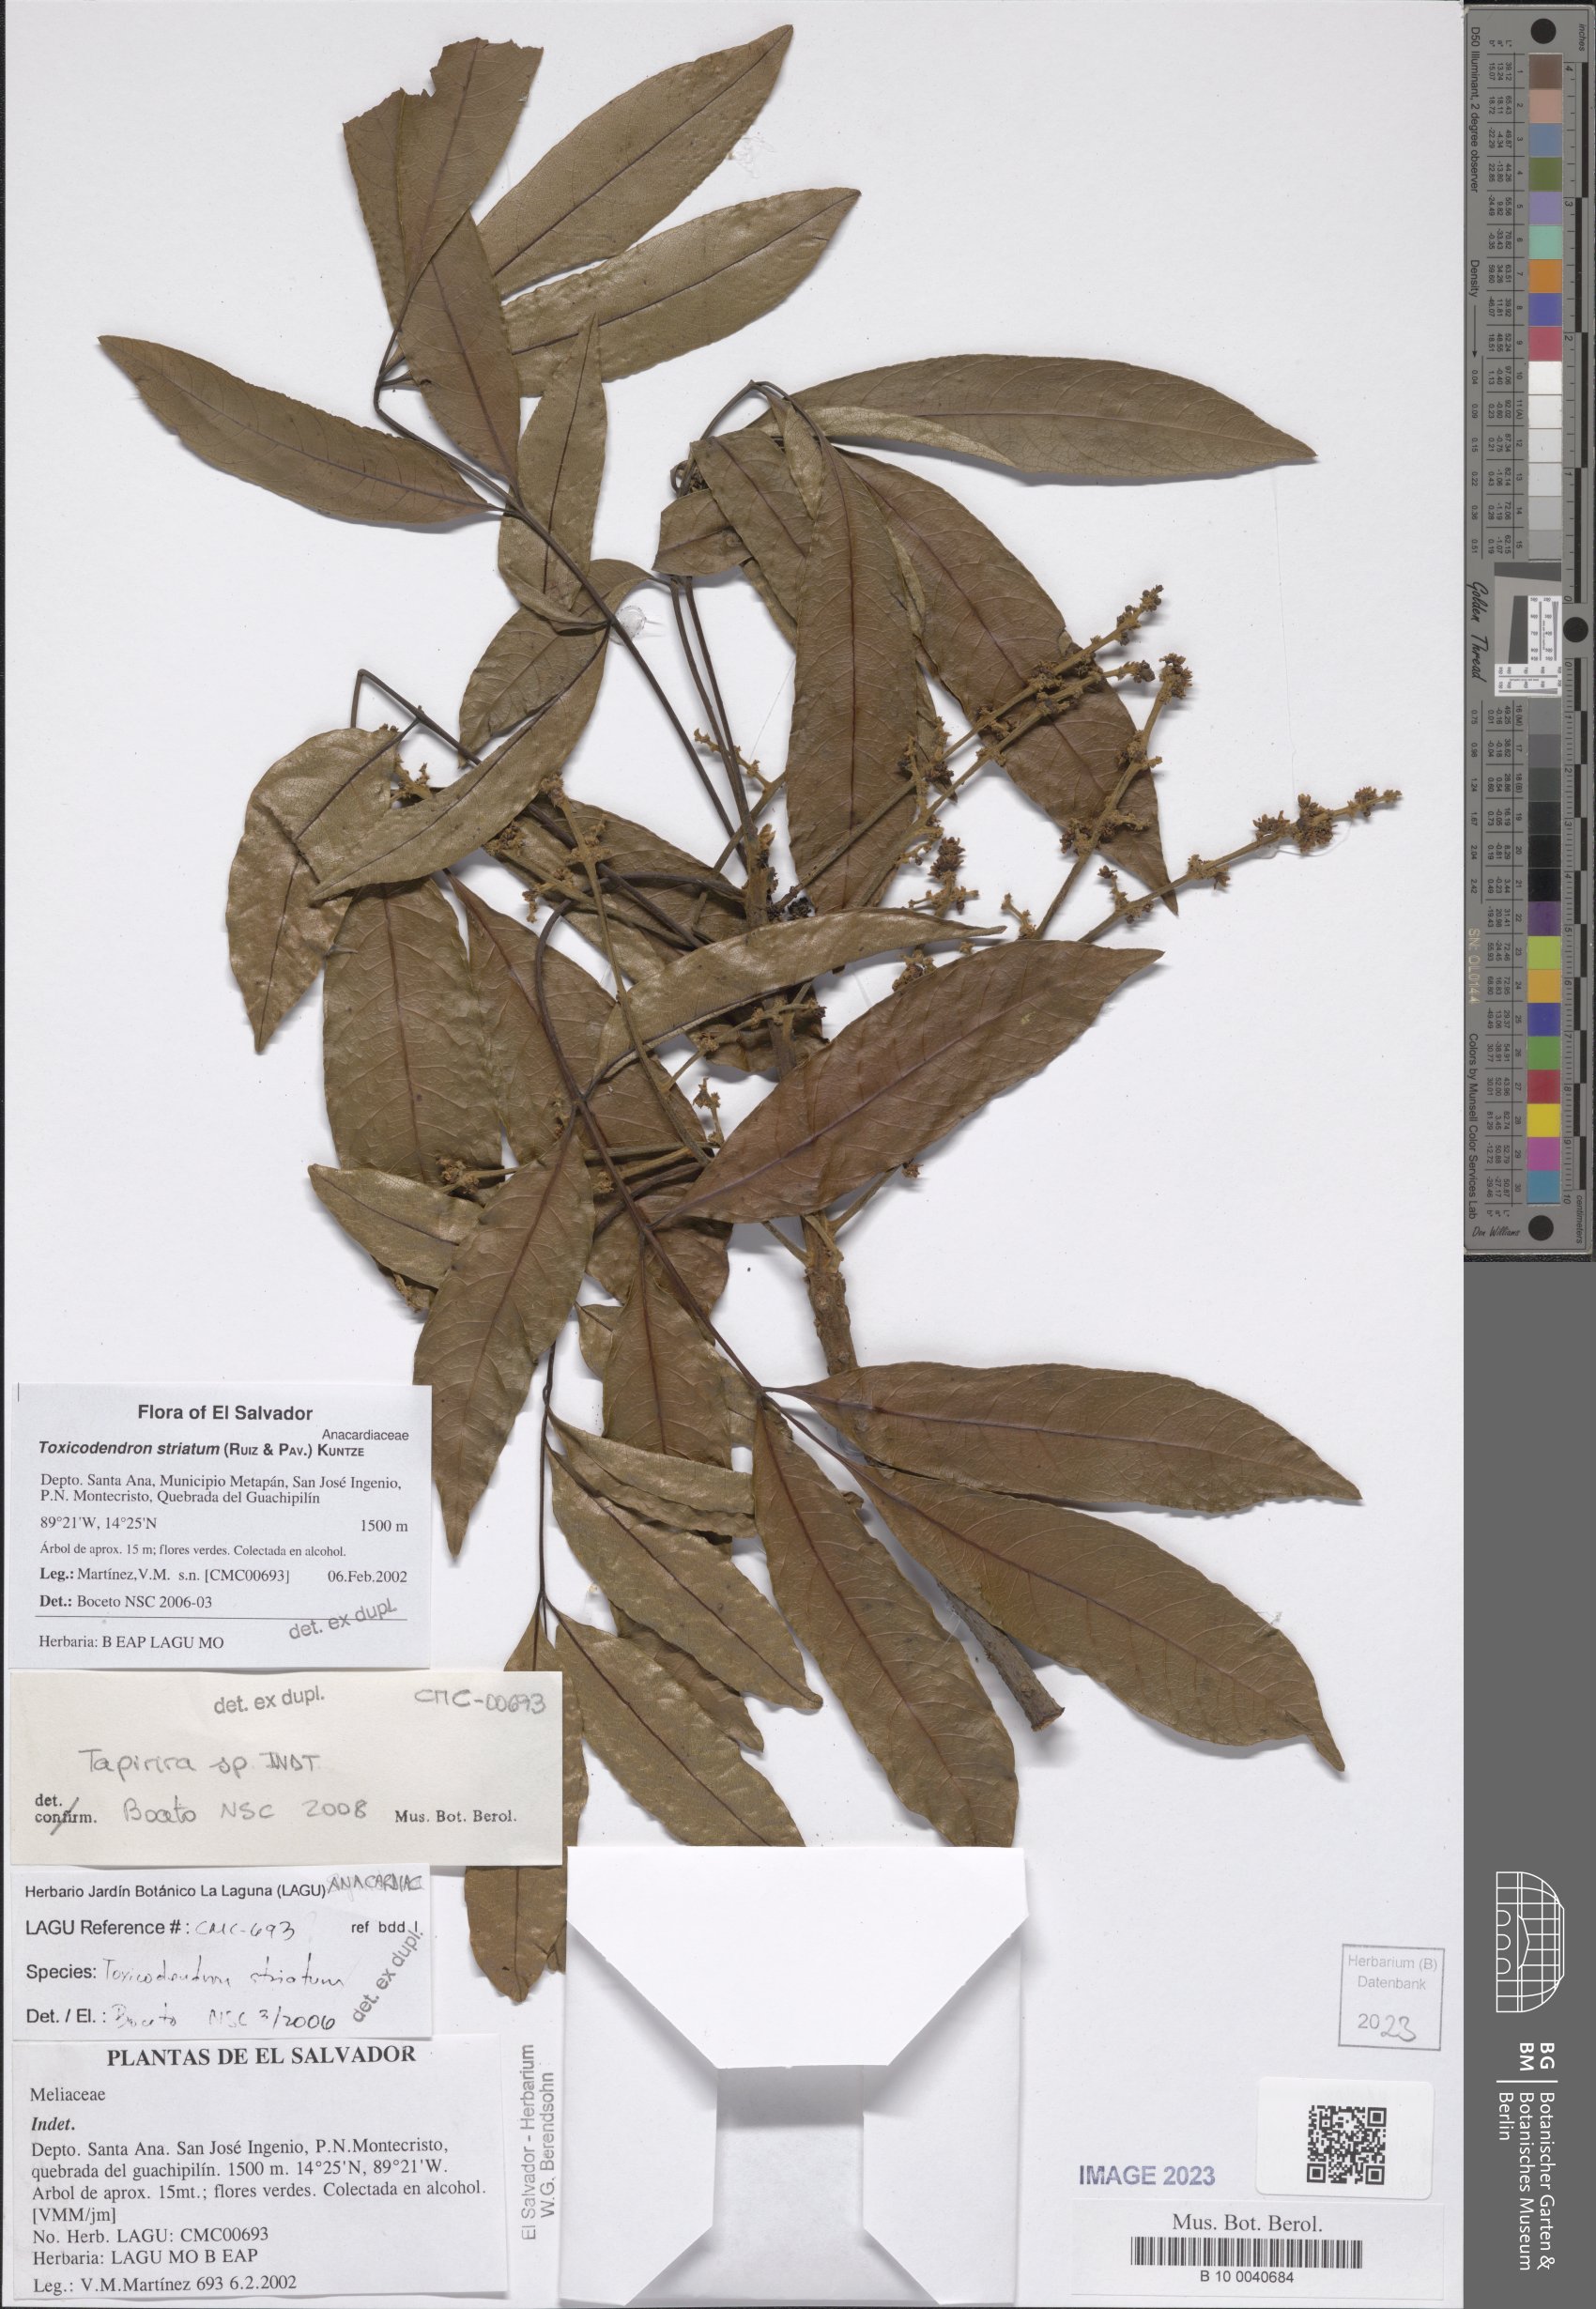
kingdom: Plantae
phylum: Tracheophyta
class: Magnoliopsida
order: Sapindales
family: Anacardiaceae
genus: Toxicodendron
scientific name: Toxicodendron striatum
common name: Sumac
